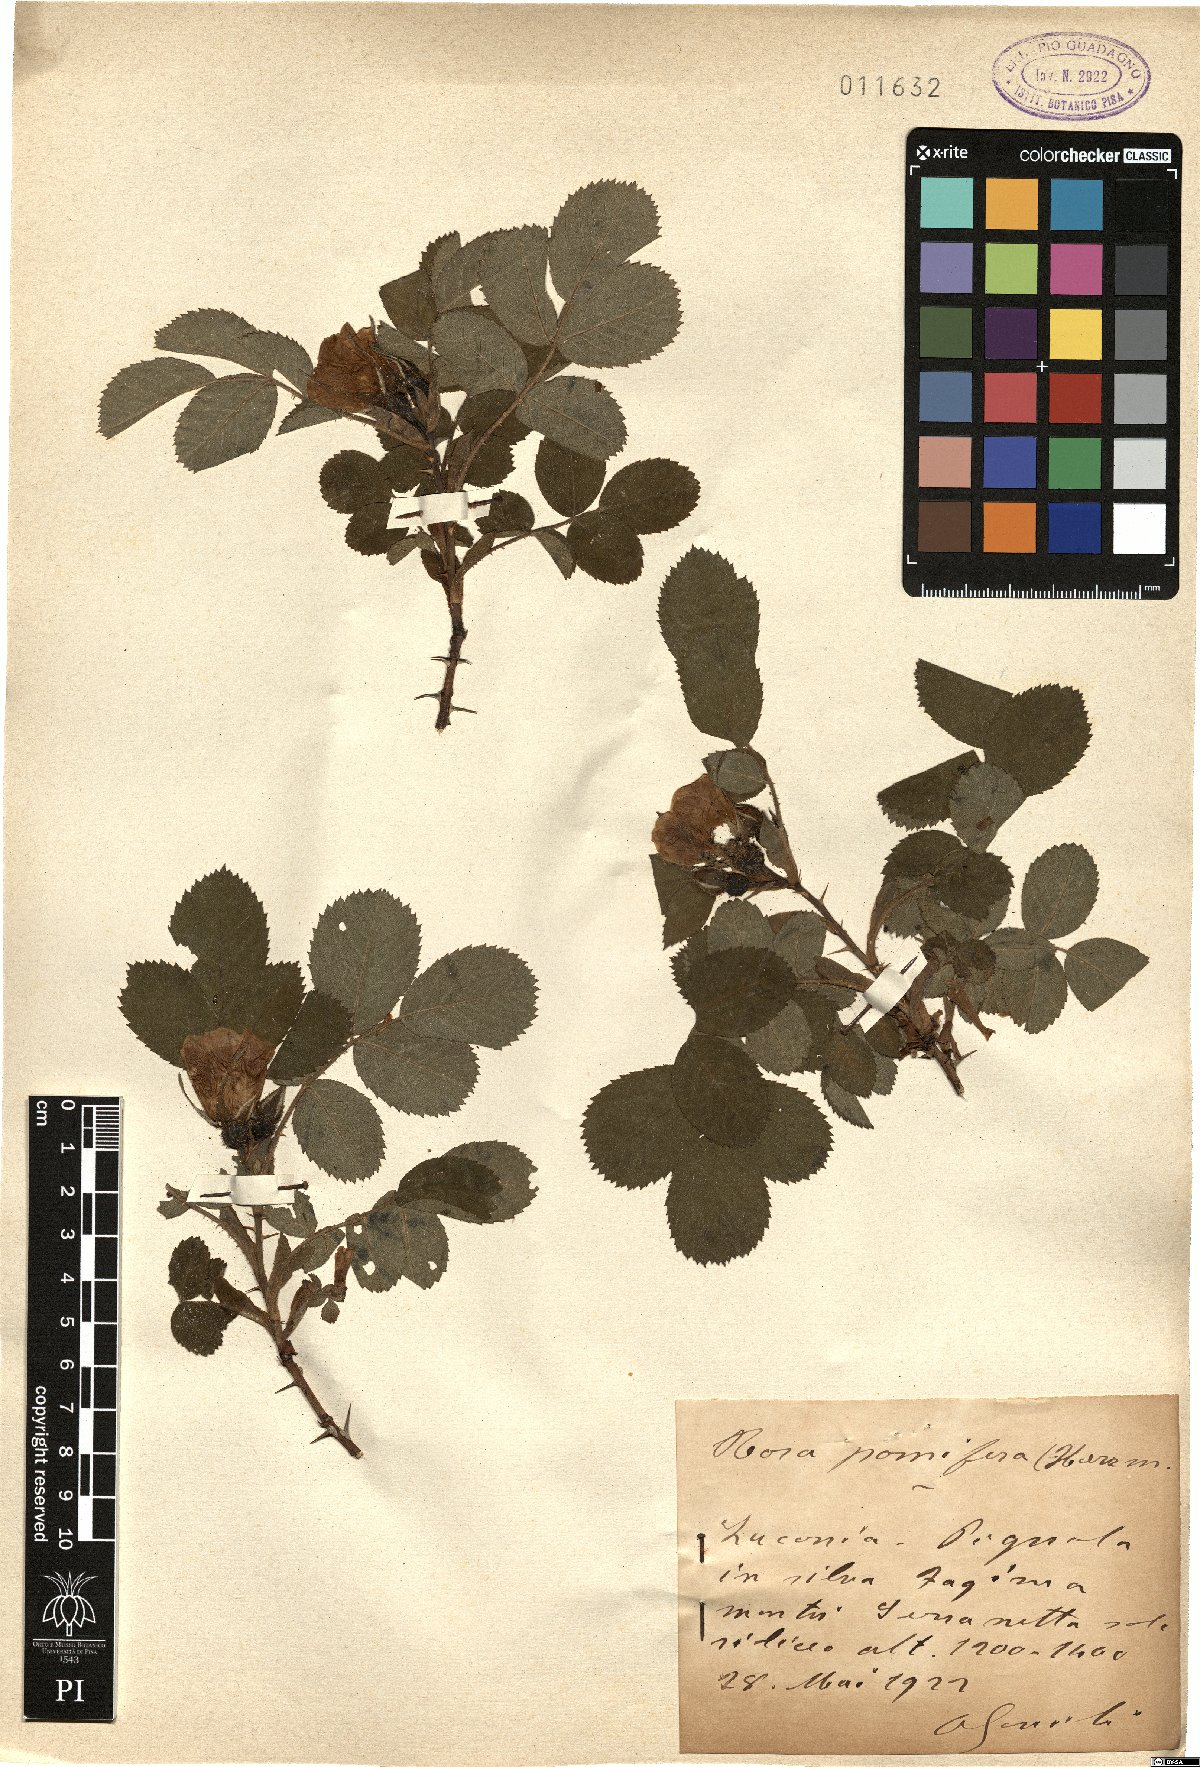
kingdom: Plantae
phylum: Tracheophyta
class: Magnoliopsida
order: Rosales
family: Rosaceae
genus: Rosa
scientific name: Rosa villosa
